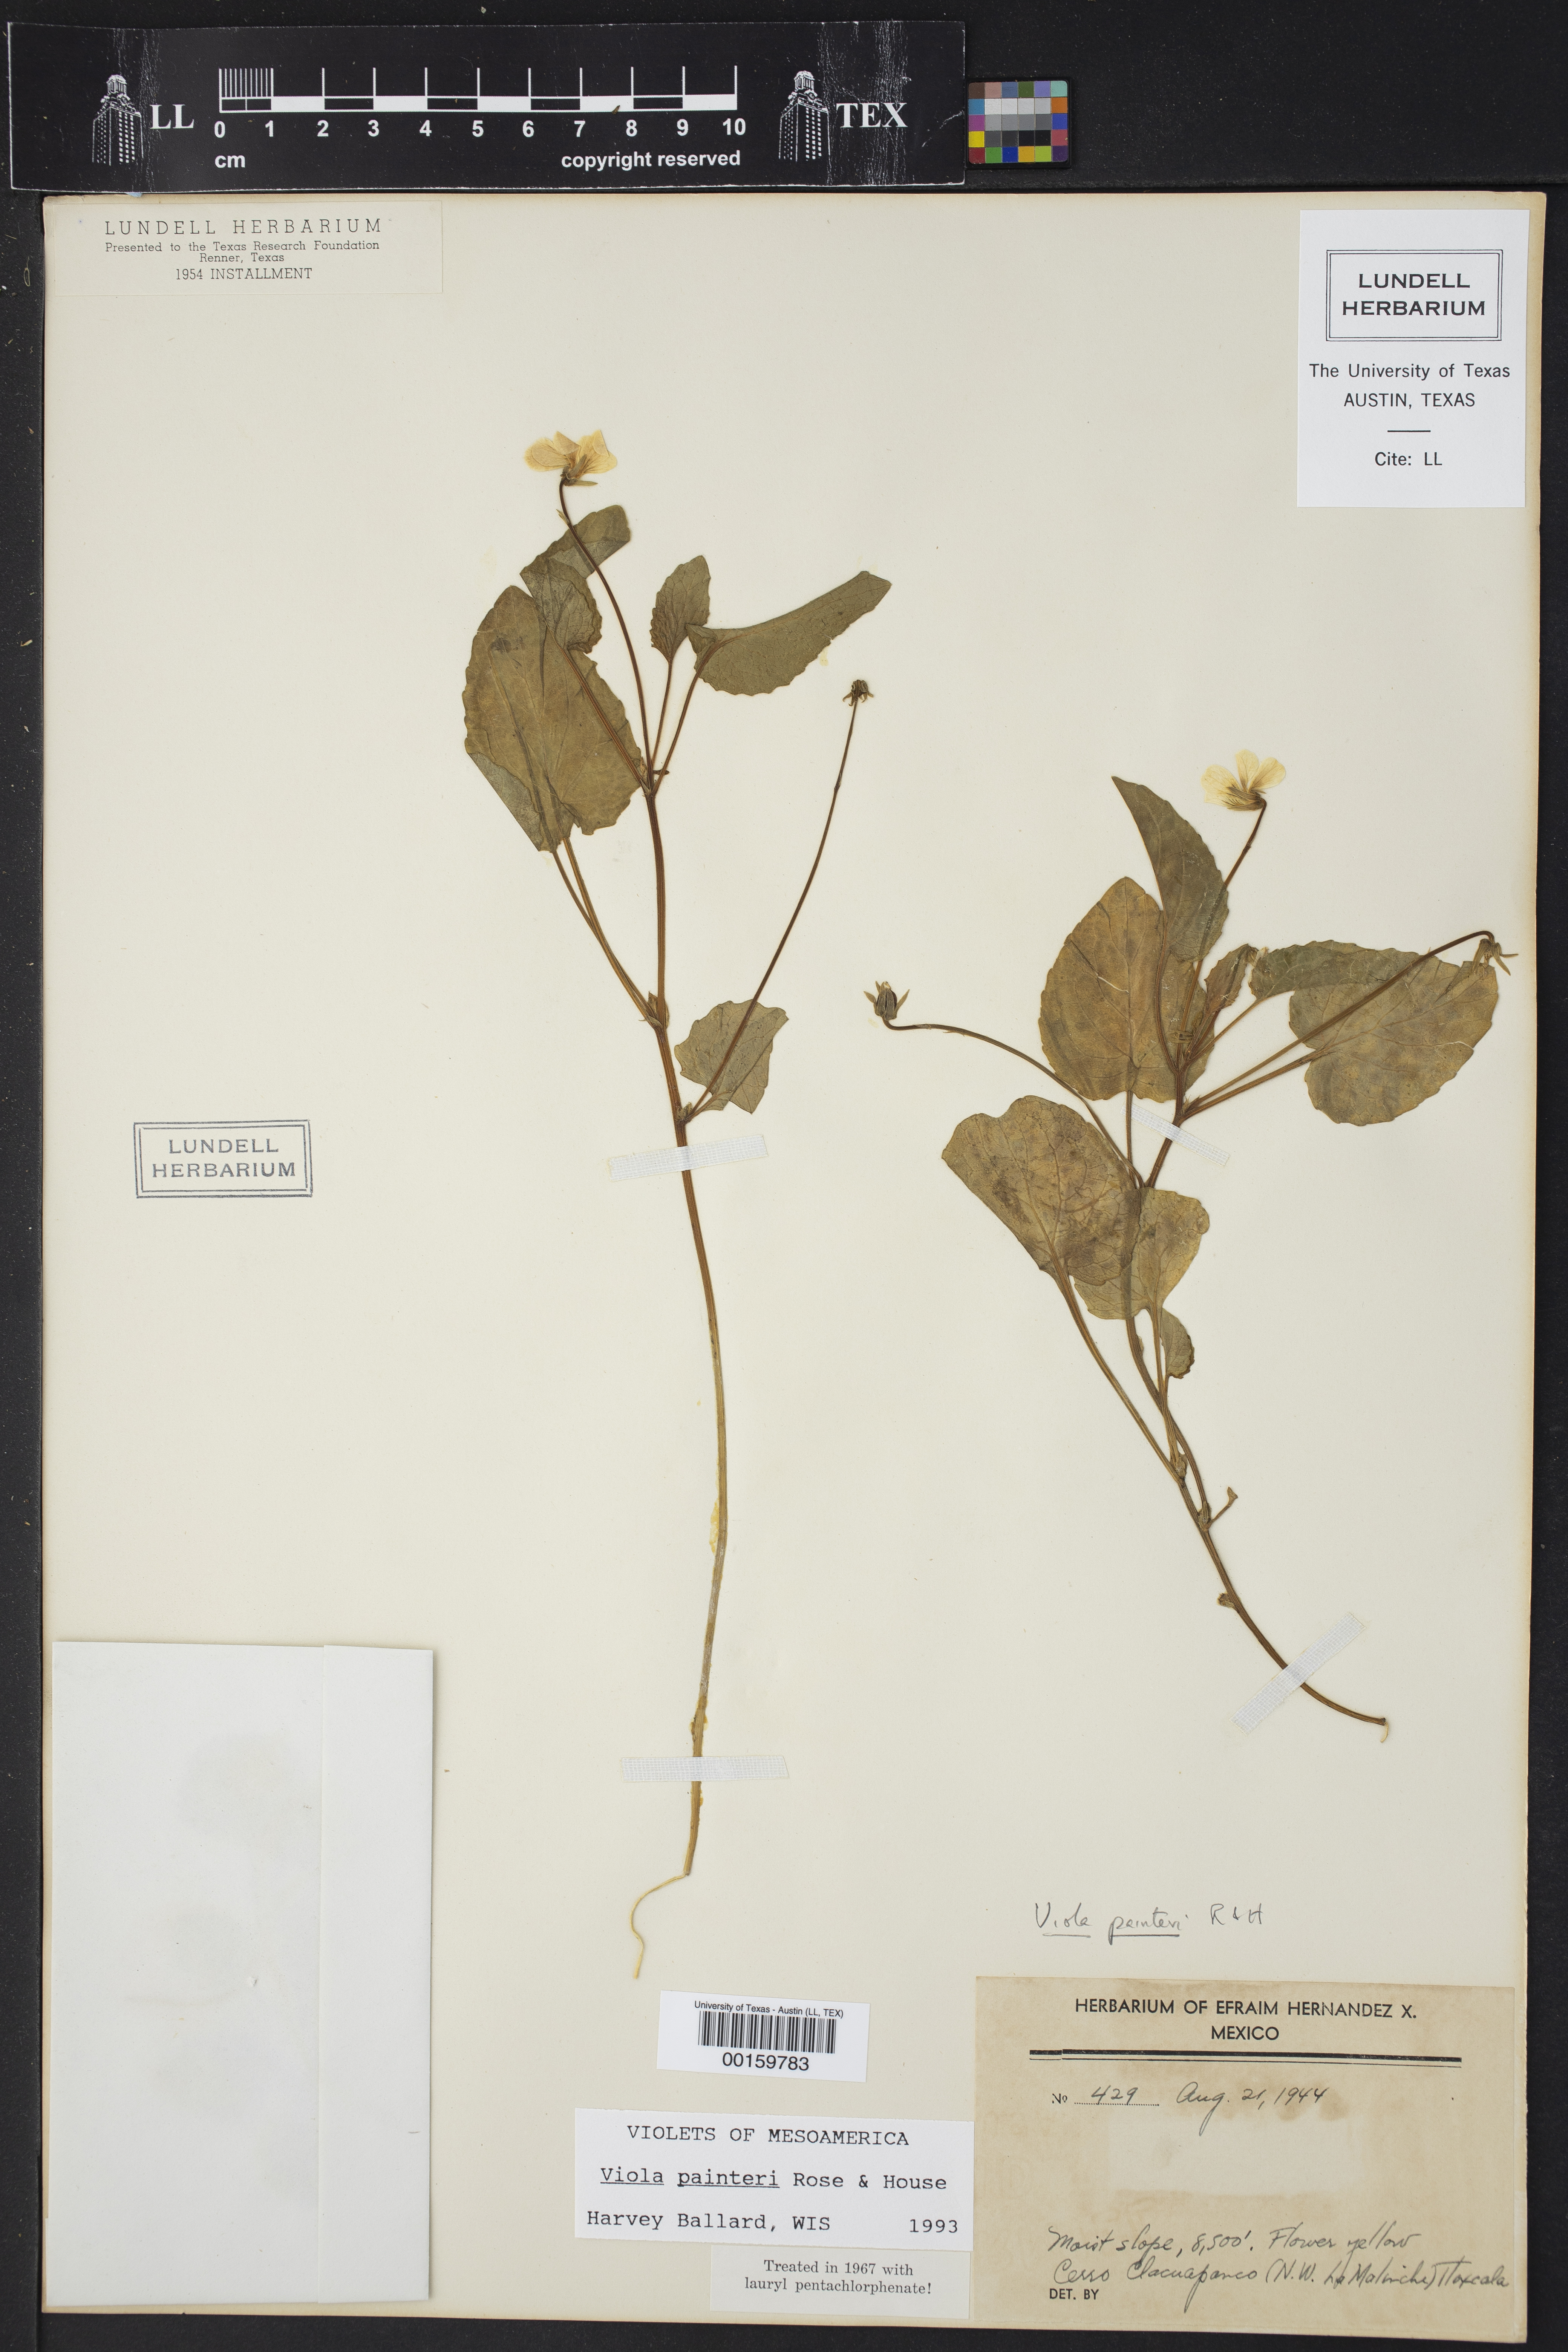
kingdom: Plantae
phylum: Tracheophyta
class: Magnoliopsida
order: Malpighiales
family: Violaceae
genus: Viola
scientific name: Viola painteri
